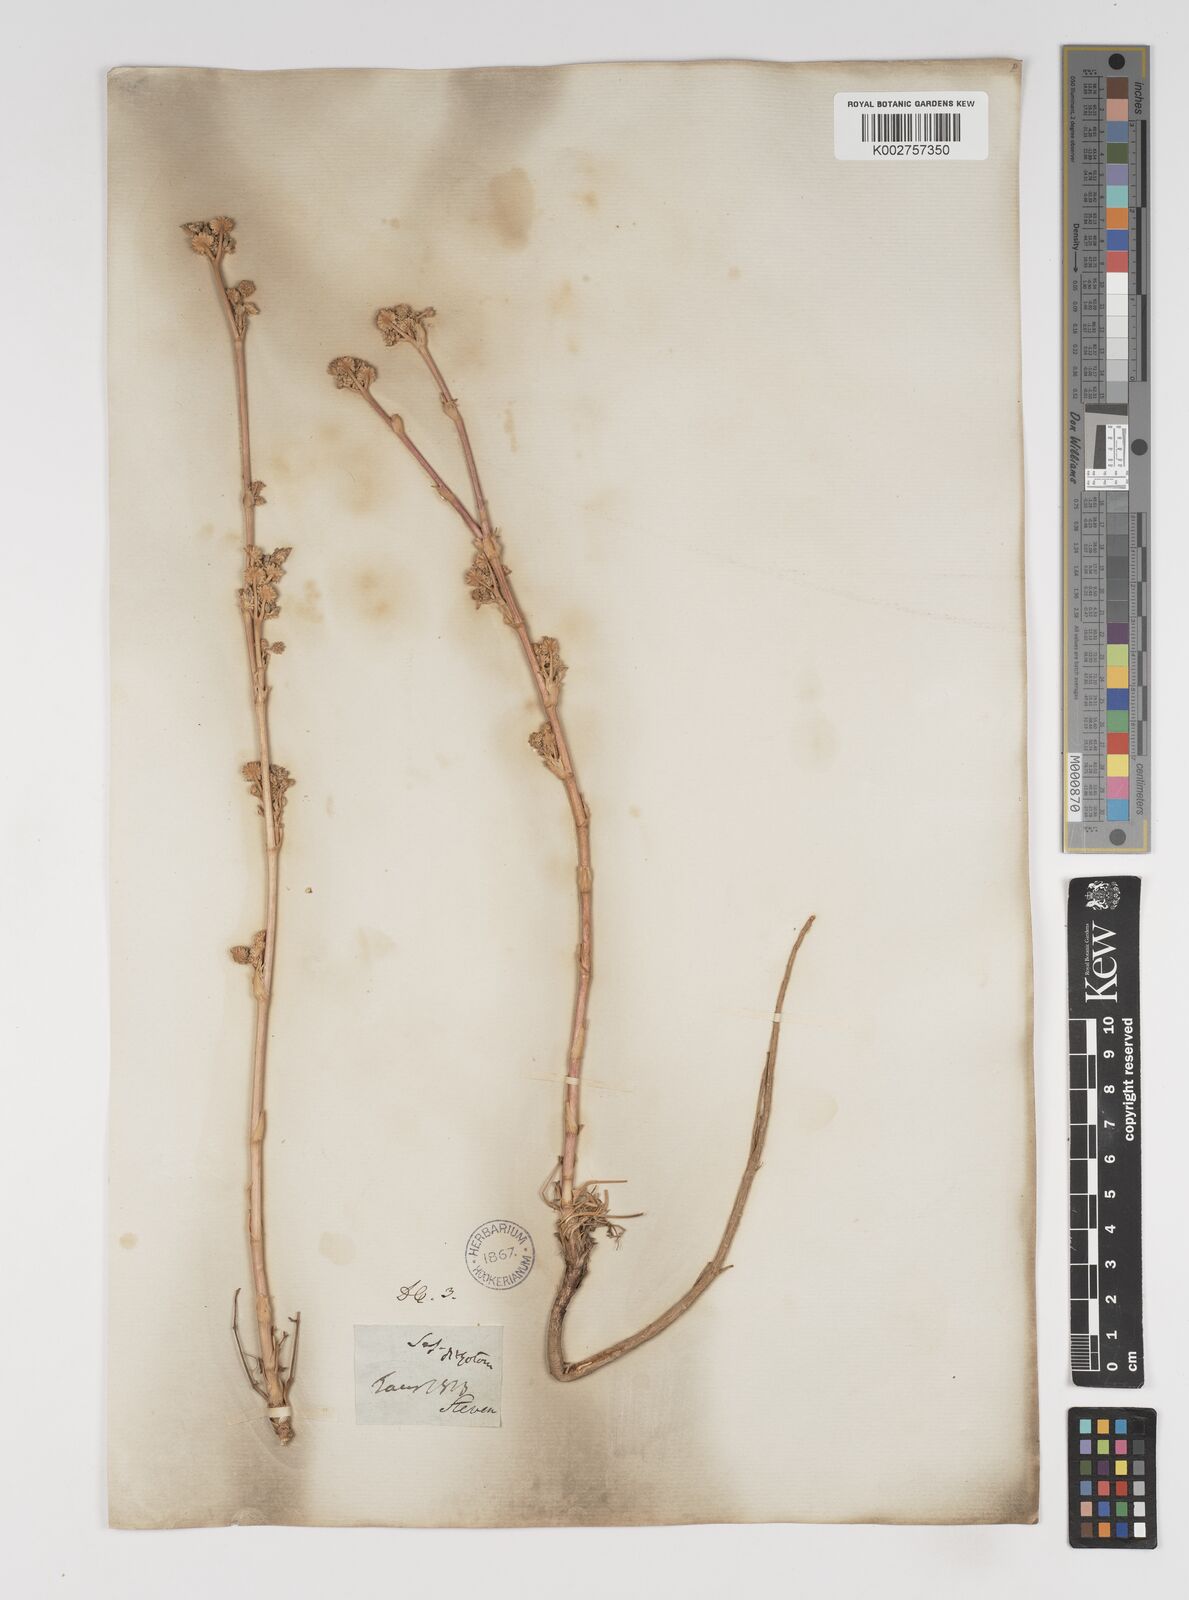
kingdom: Plantae
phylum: Tracheophyta
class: Magnoliopsida
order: Apiales
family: Apiaceae
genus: Hippomarathrum
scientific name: Hippomarathrum dichotomum
